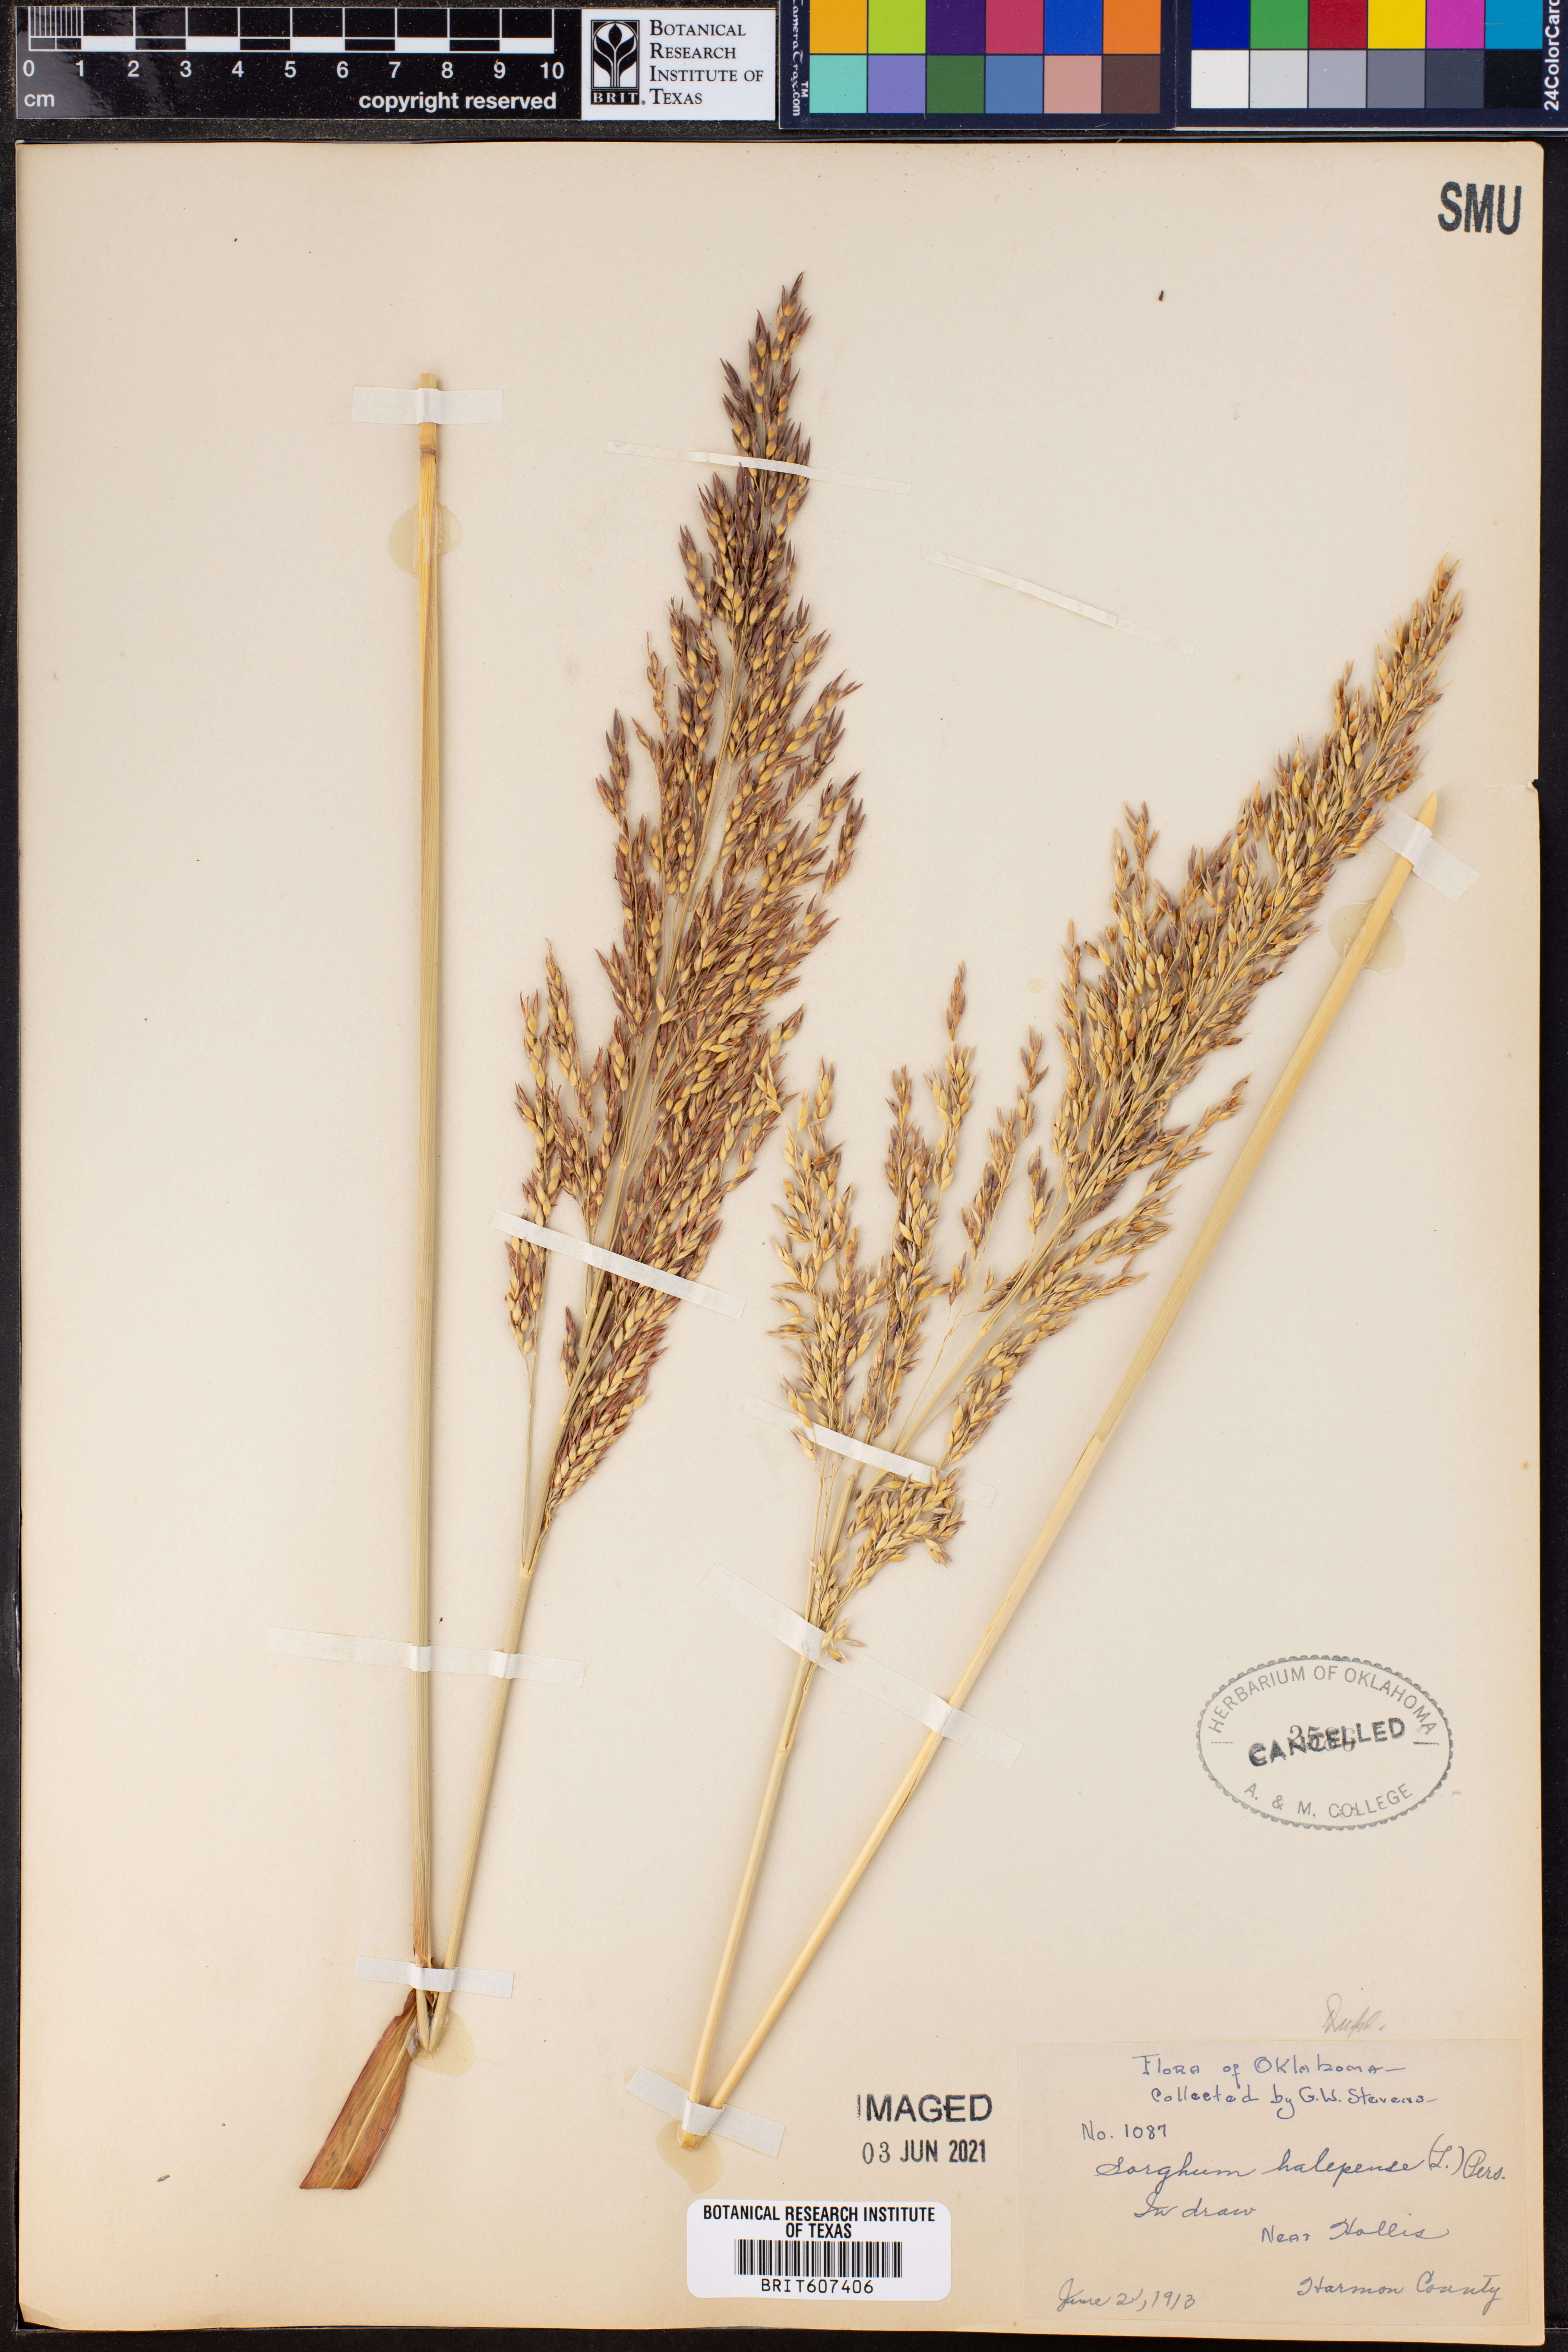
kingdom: Plantae
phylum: Tracheophyta
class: Liliopsida
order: Poales
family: Poaceae
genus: Sorghum
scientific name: Sorghum halepense
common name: Johnson-grass
